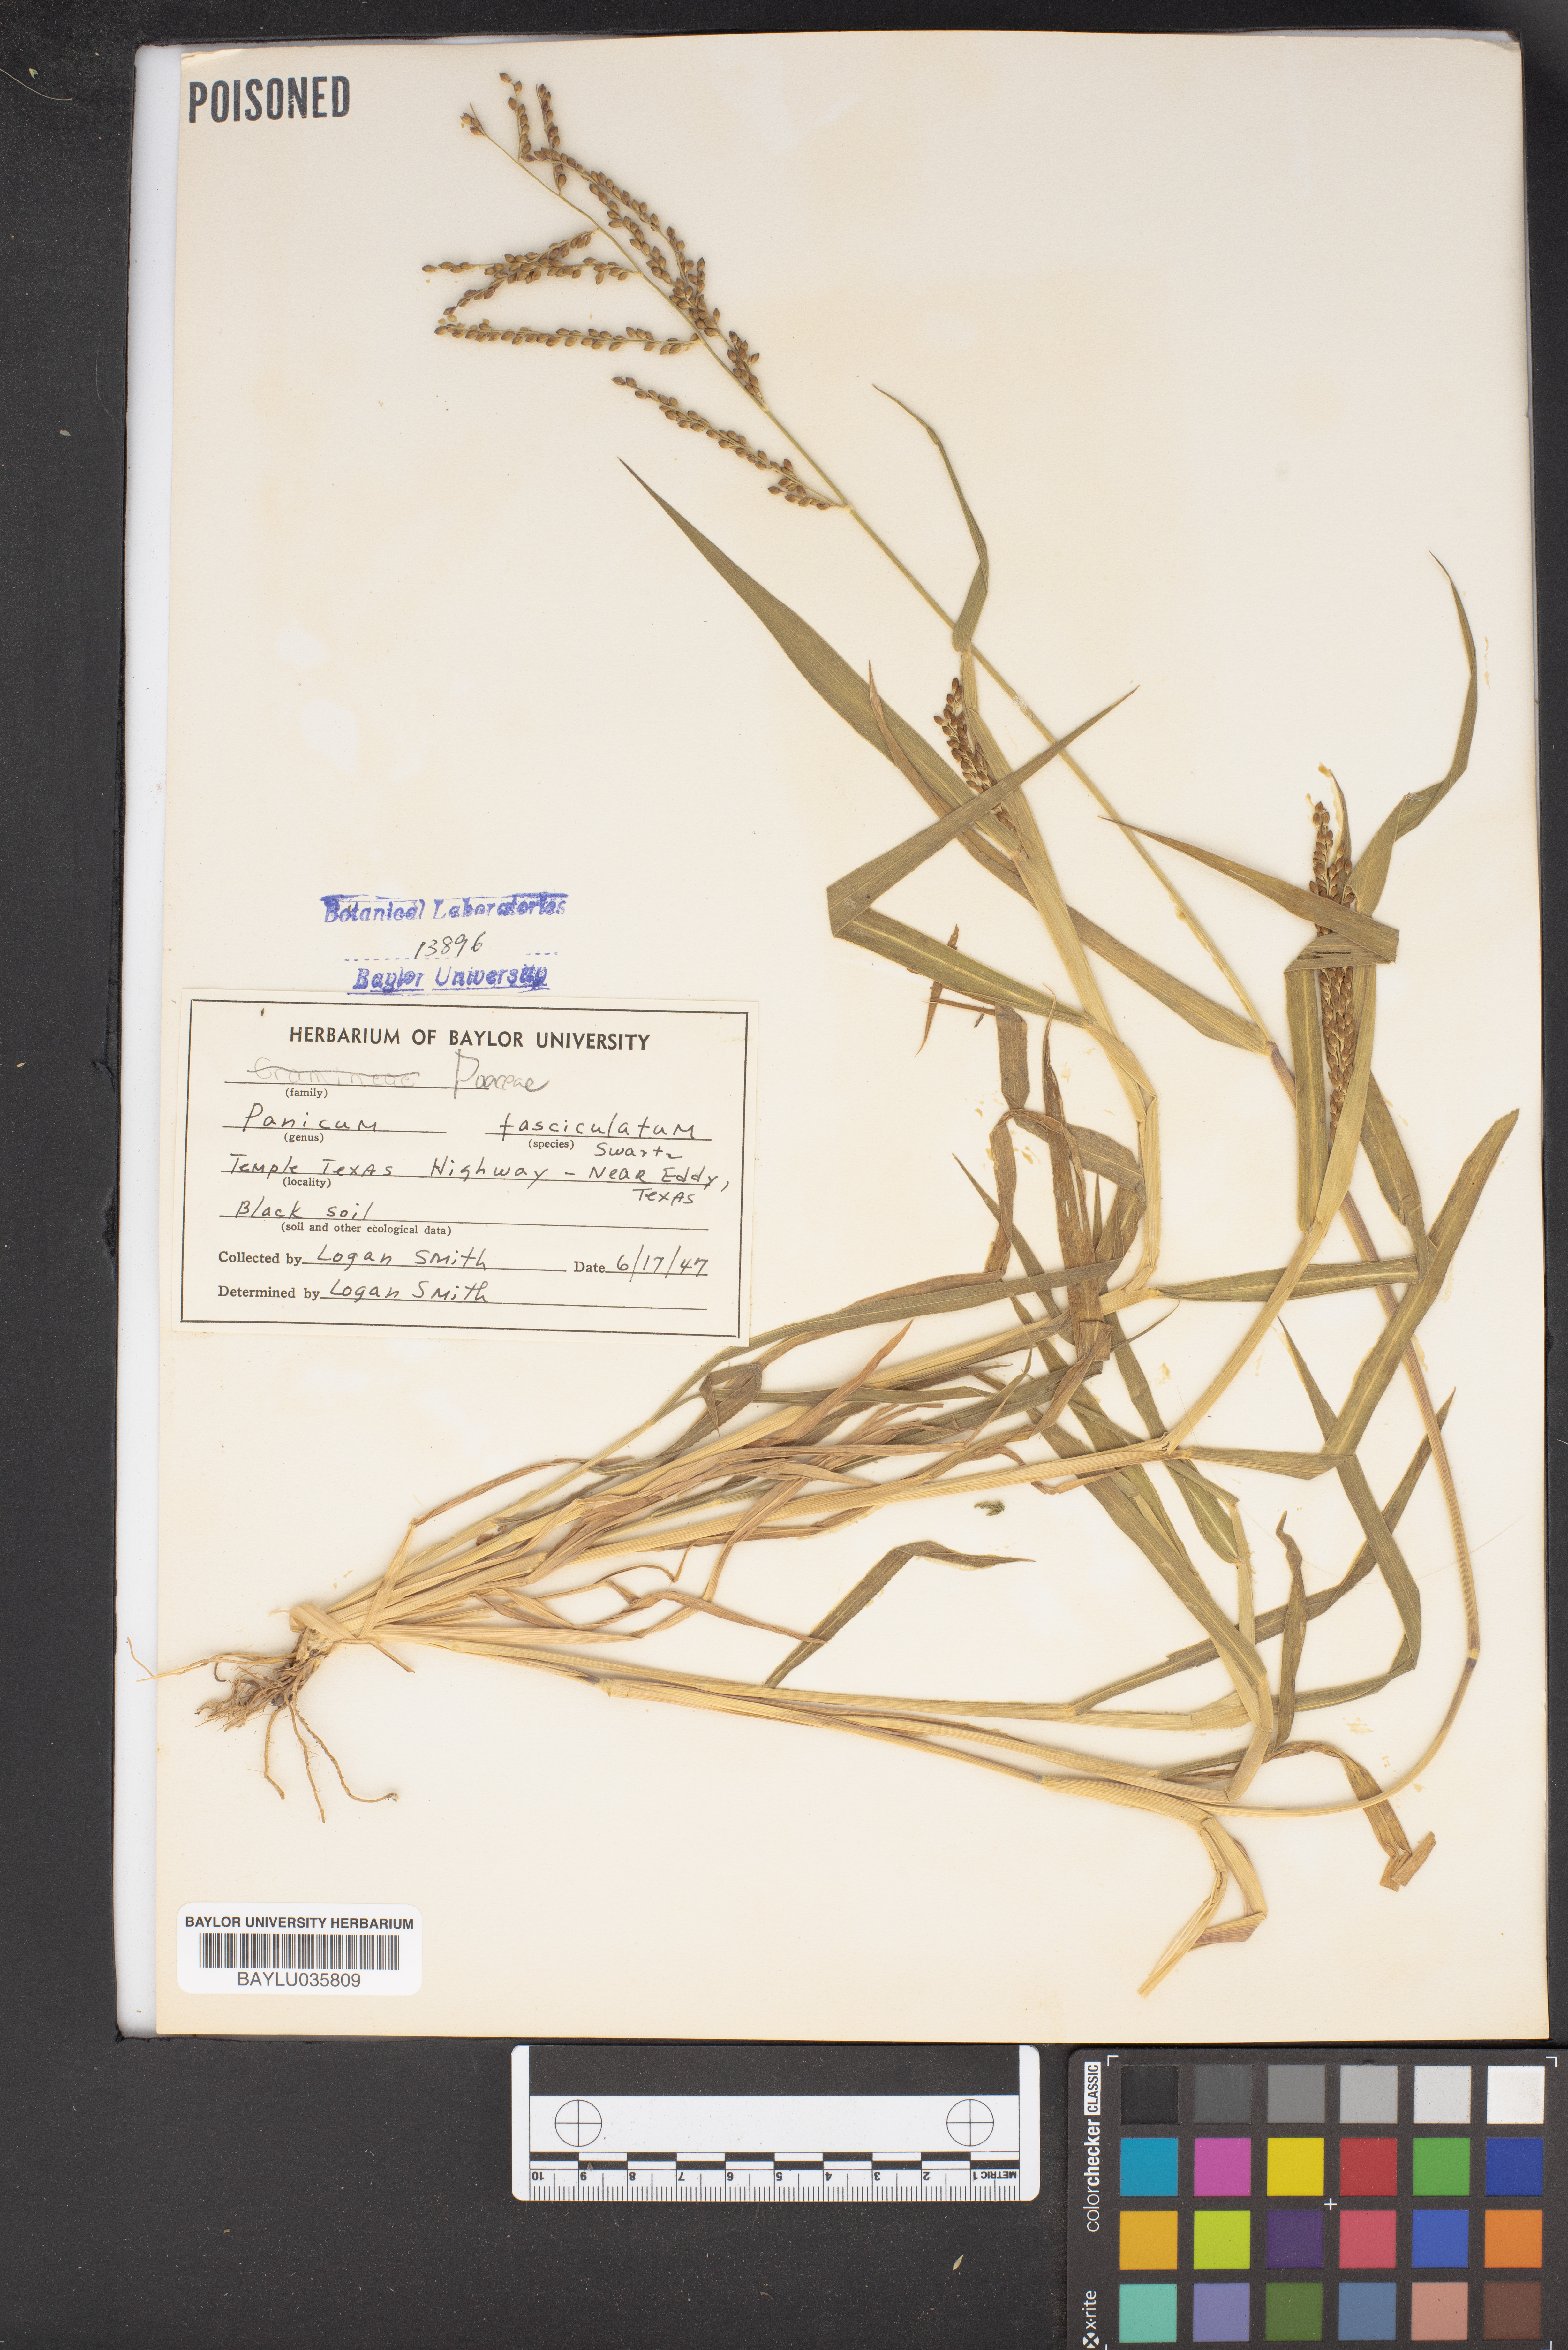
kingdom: Plantae
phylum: Tracheophyta
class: Liliopsida
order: Poales
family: Poaceae
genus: Urochloa
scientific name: Urochloa fusca
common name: Browntop signal grass
